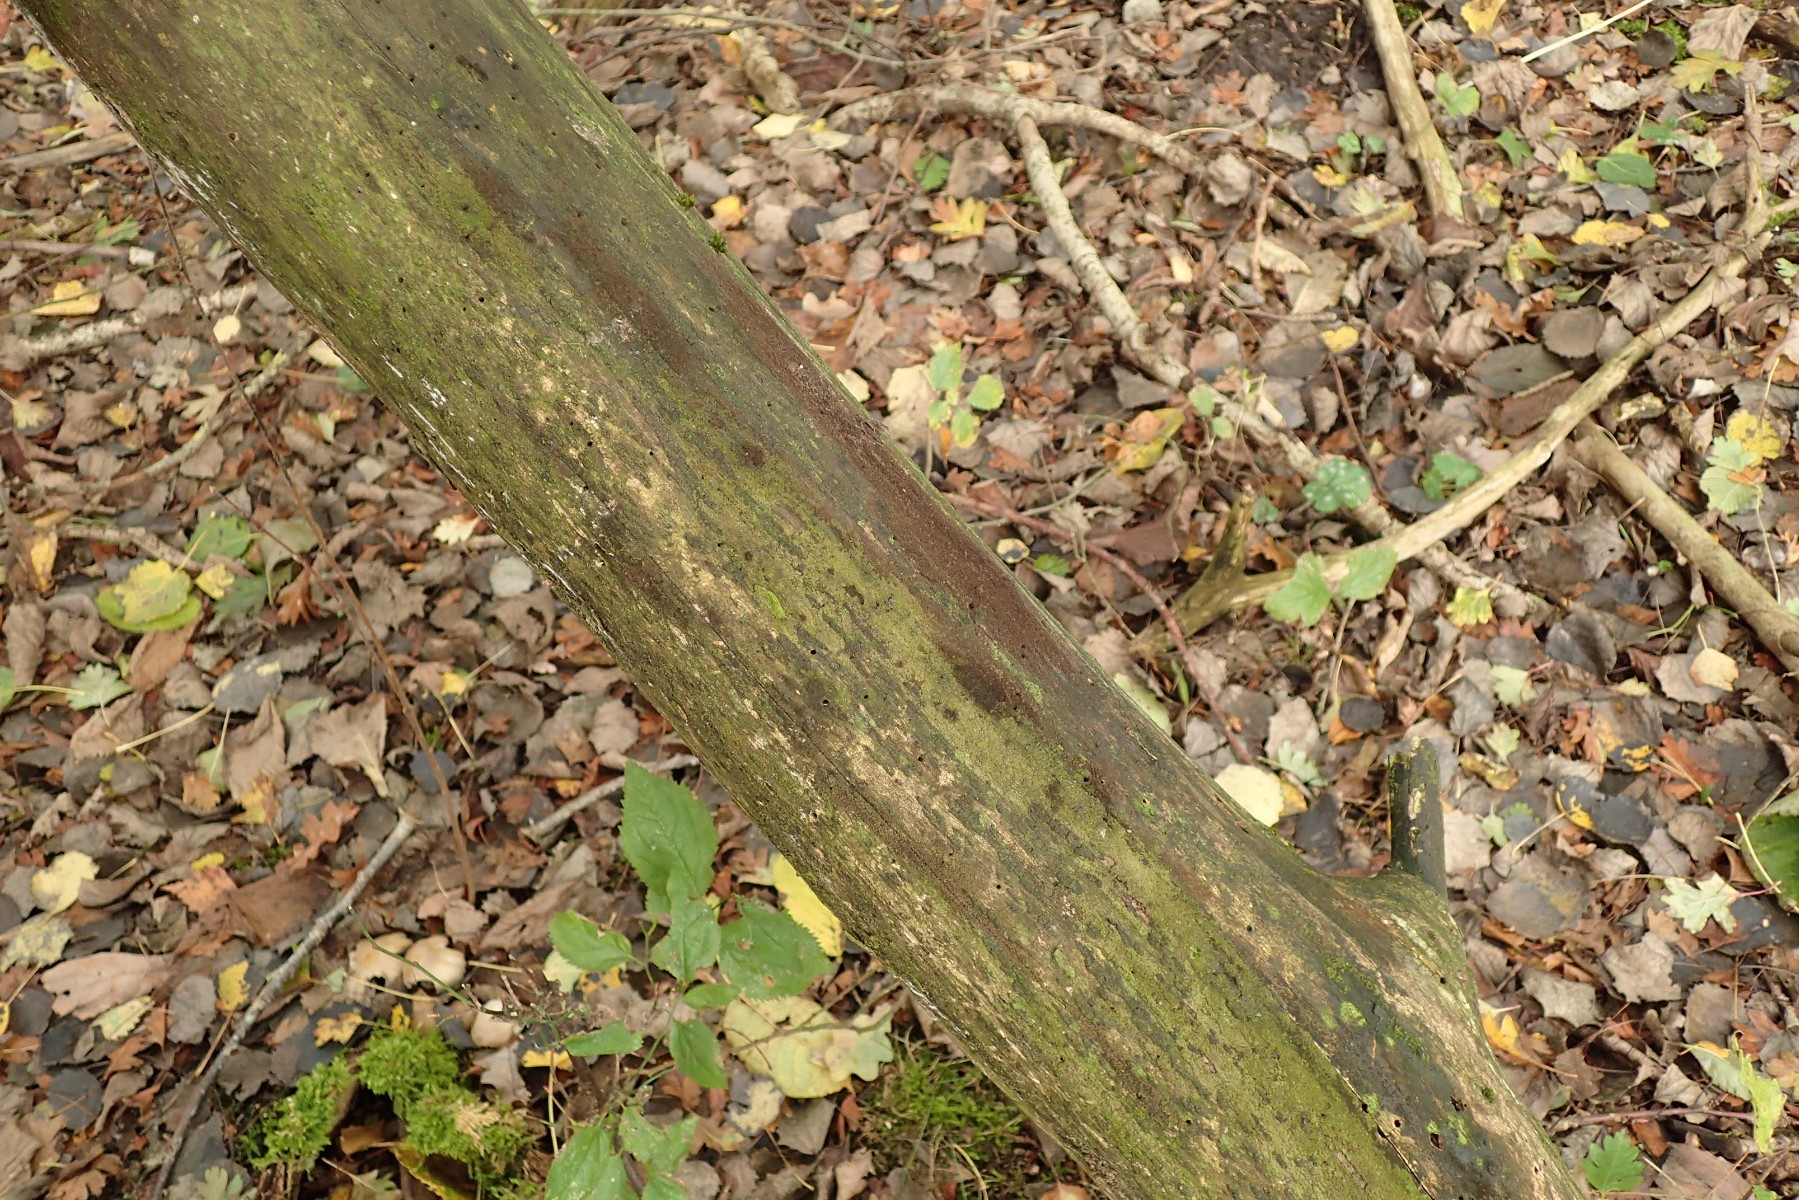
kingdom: Fungi
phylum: Ascomycota
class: Sordariomycetes
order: Sordariales
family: Helminthosphaeriaceae
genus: Echinosphaeria
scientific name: Echinosphaeria canescens
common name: brun børstekerne
